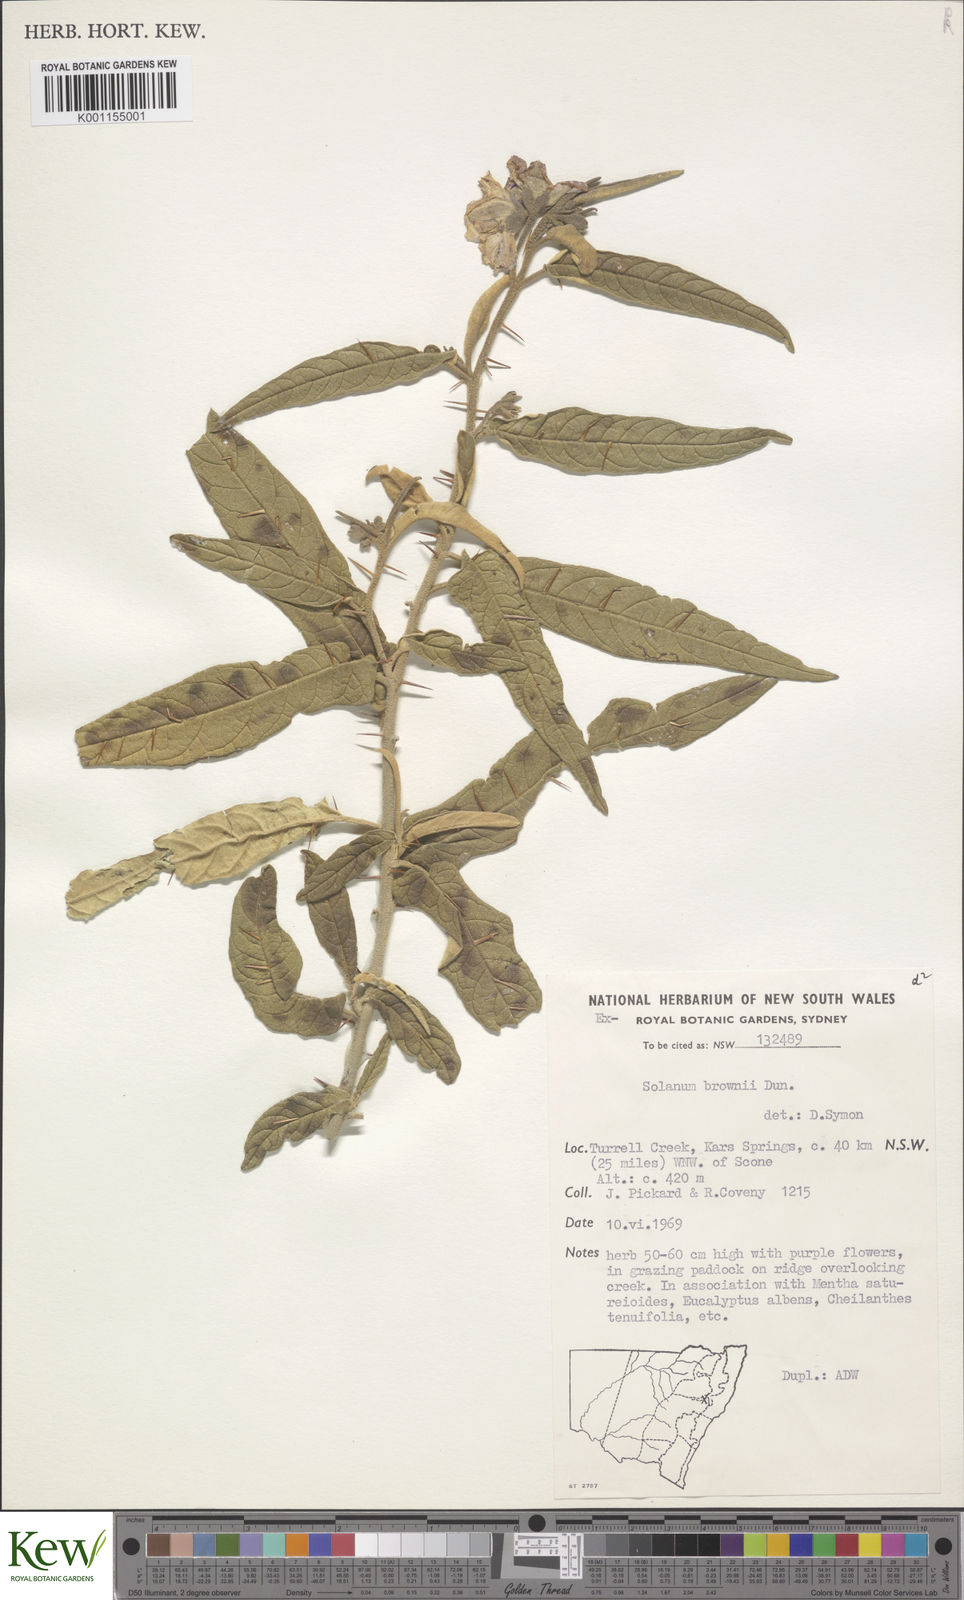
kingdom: Plantae
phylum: Tracheophyta
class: Magnoliopsida
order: Solanales
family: Solanaceae
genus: Solanum
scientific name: Solanum brownii
